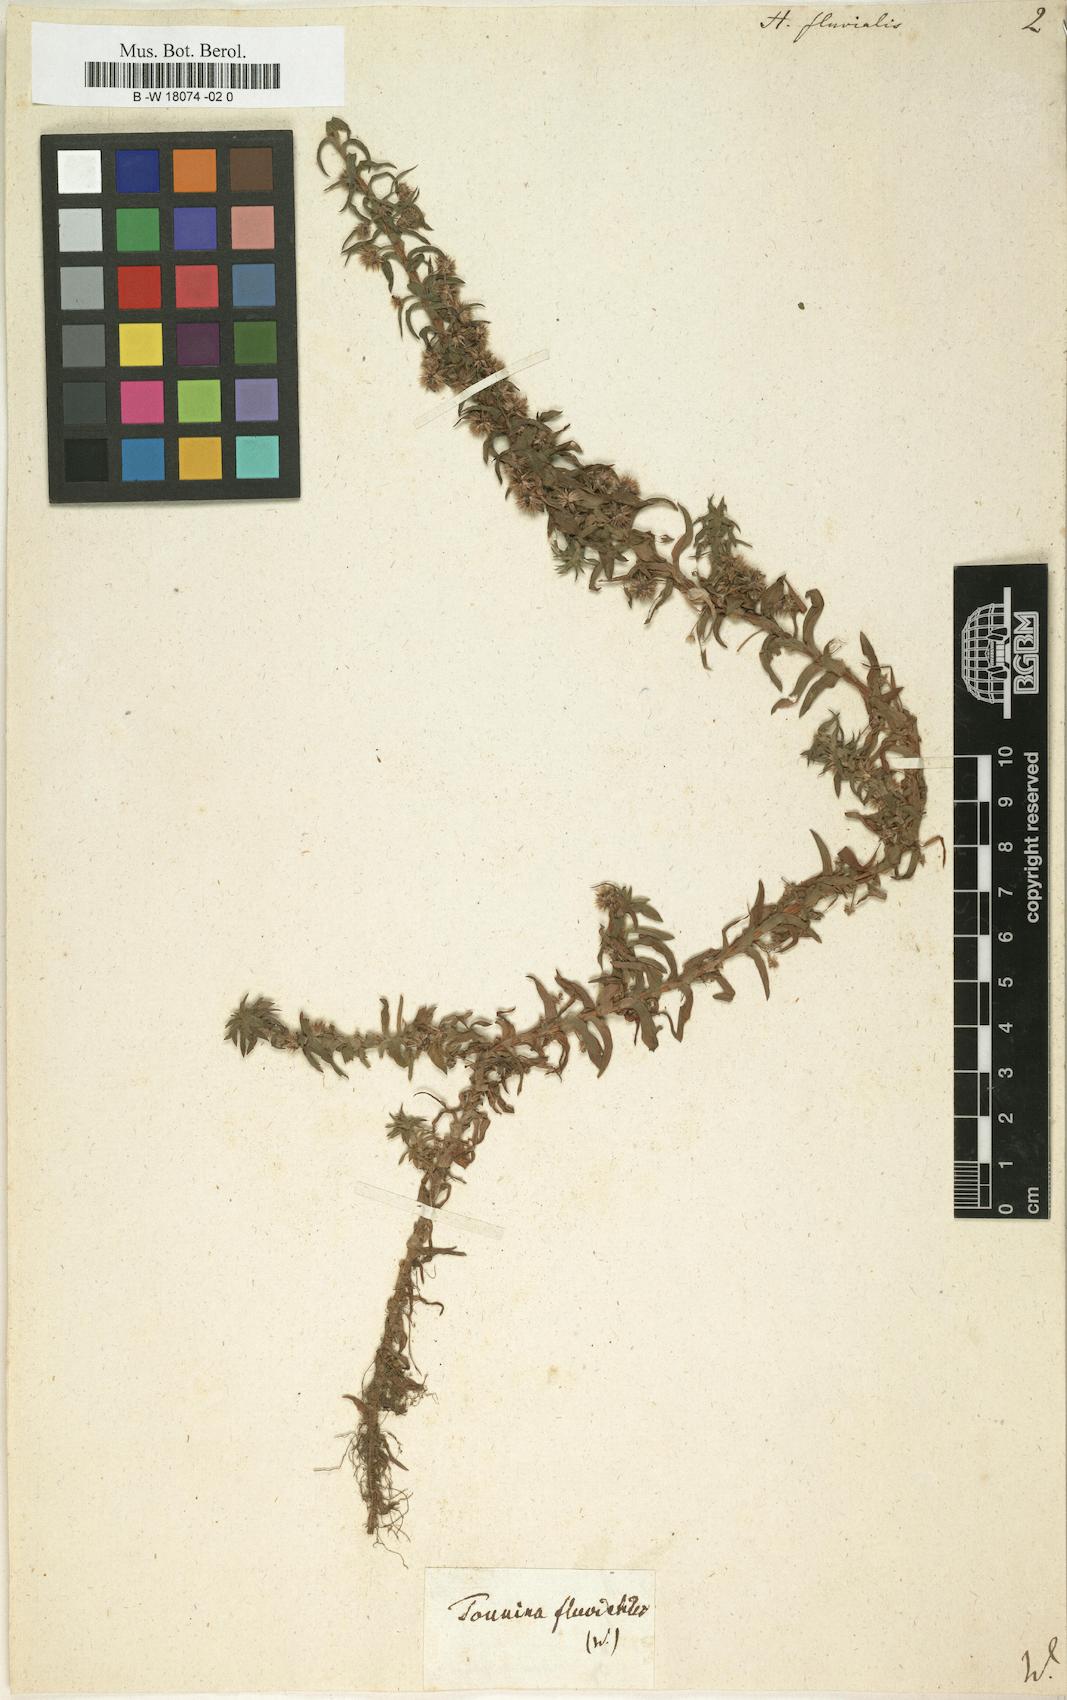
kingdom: Plantae
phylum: Tracheophyta
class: Liliopsida
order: Poales
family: Eriocaulaceae
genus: Paepalanthus
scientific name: Paepalanthus fluviatilis
